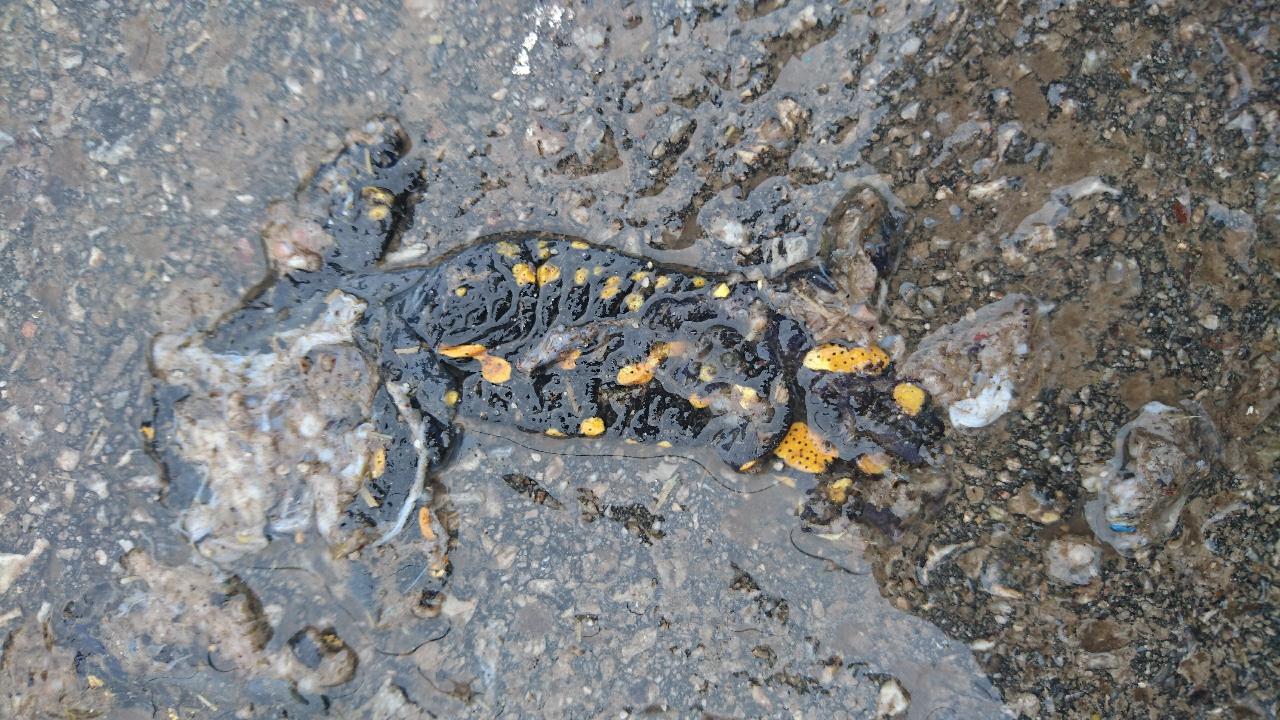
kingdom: Animalia
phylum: Chordata
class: Amphibia
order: Caudata
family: Salamandridae
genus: Salamandra
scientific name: Salamandra salamandra
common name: Fire salamander
